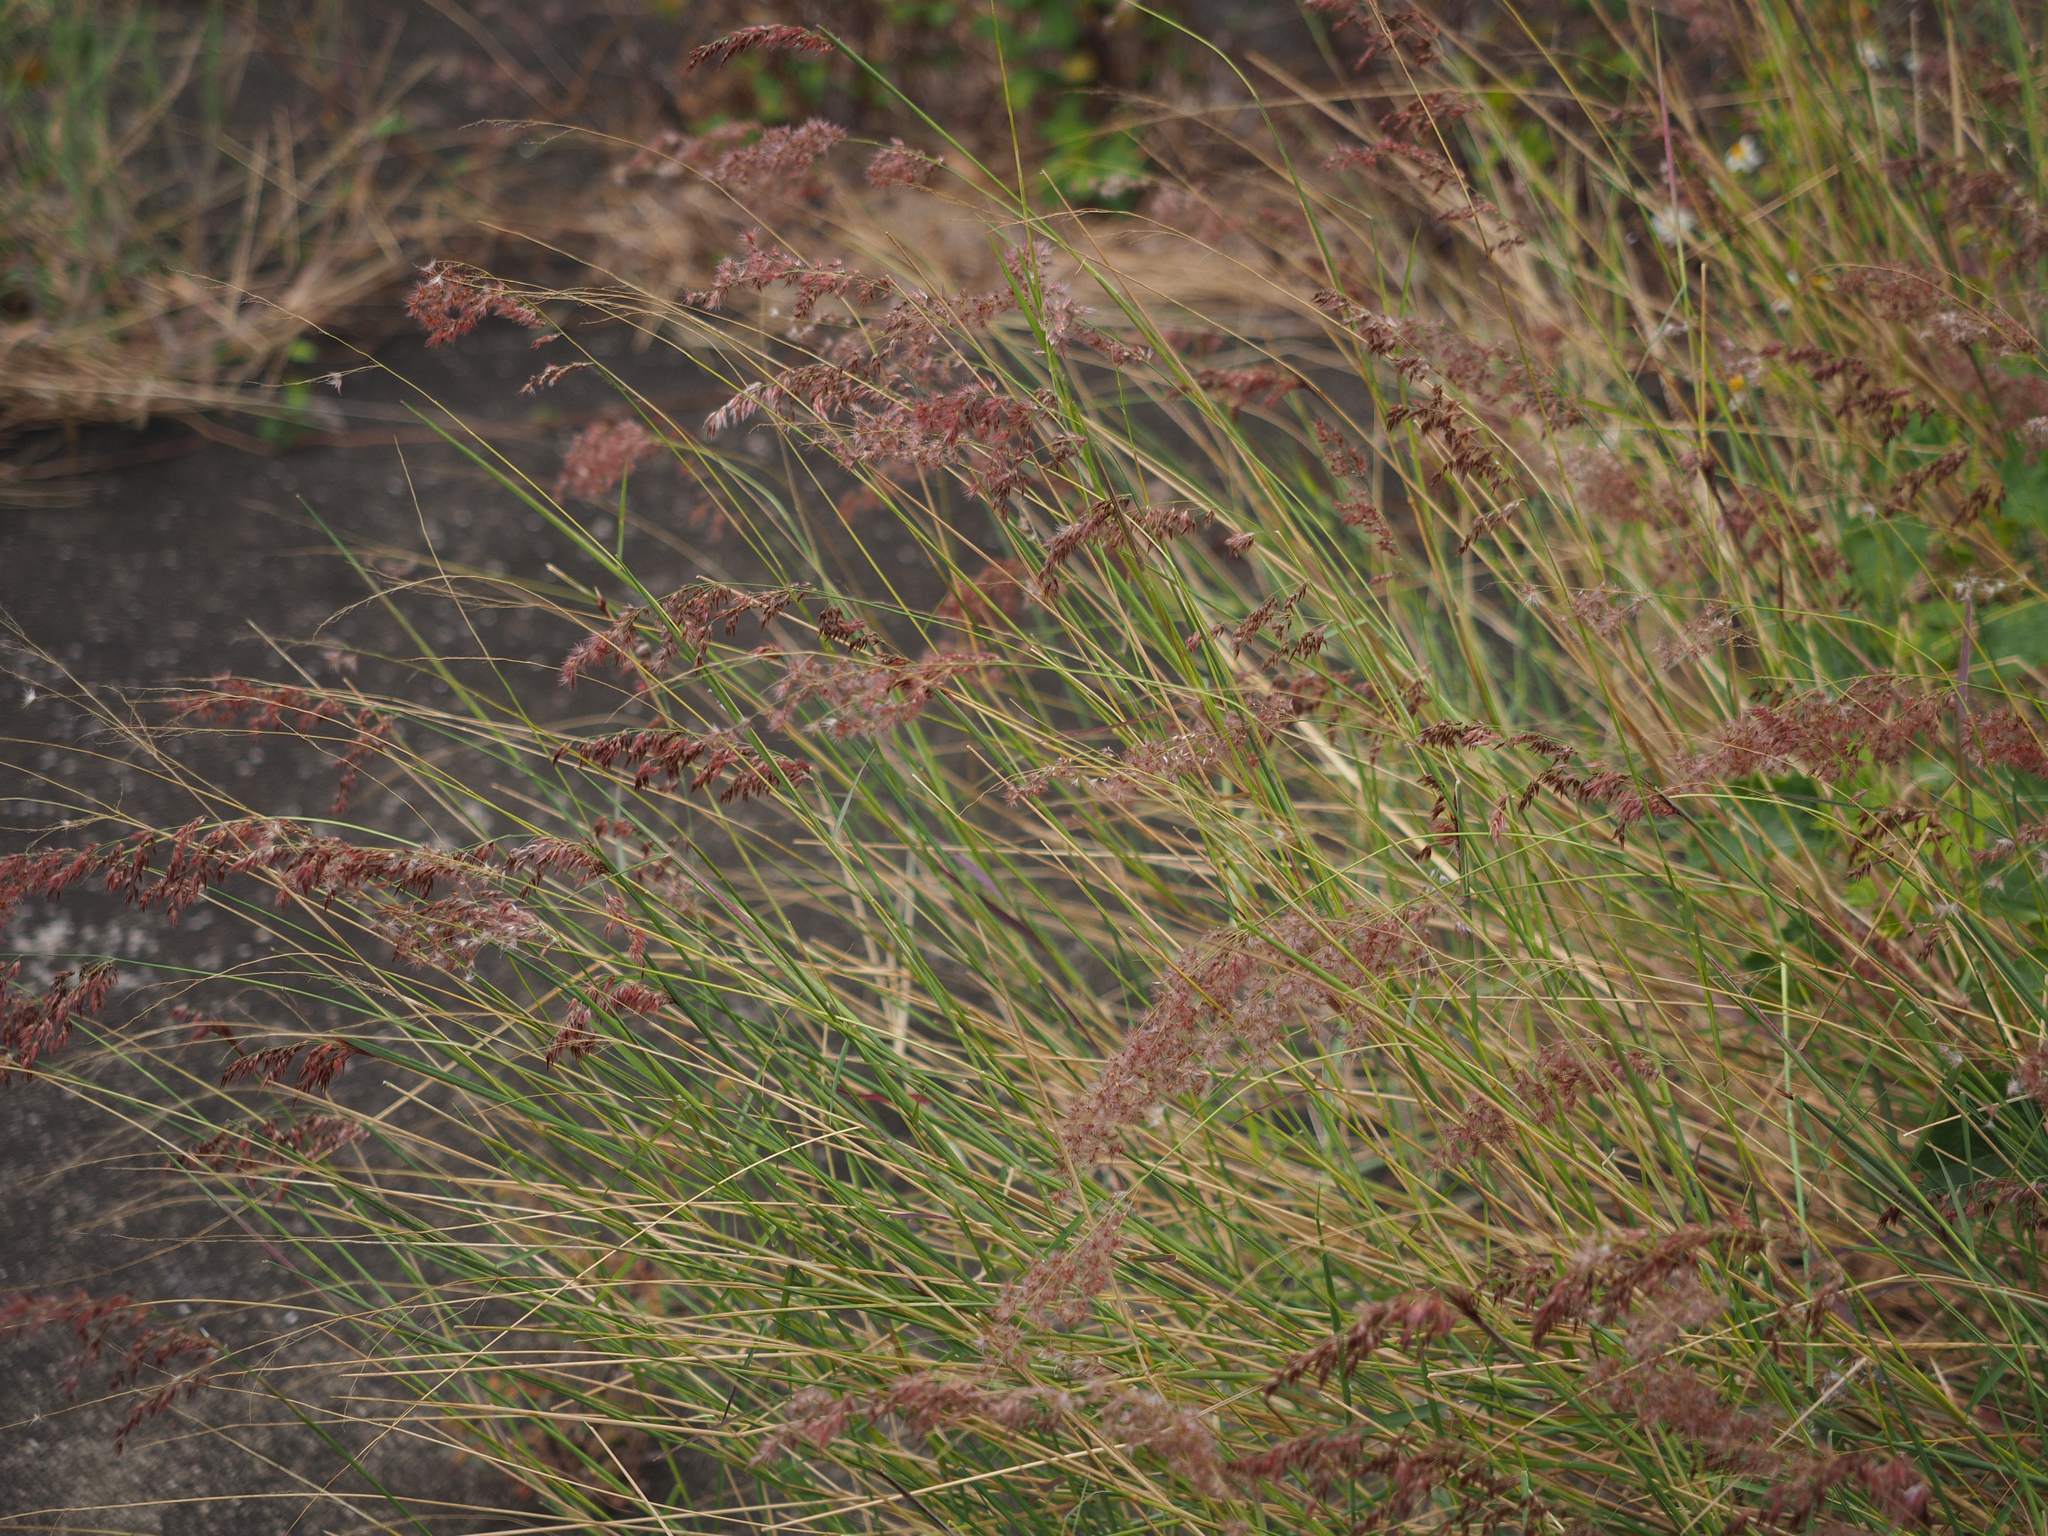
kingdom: Plantae
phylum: Tracheophyta
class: Liliopsida
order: Poales
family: Poaceae
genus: Melinis
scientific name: Melinis repens
